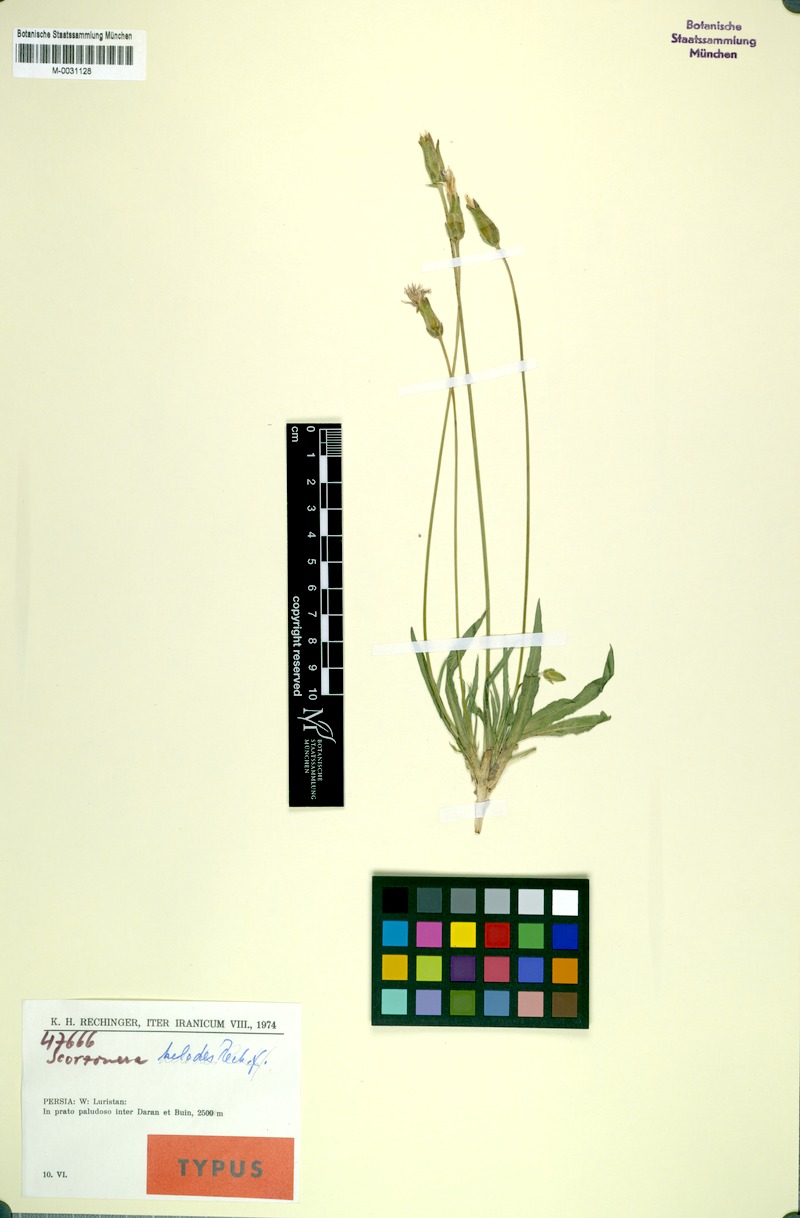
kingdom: Plantae
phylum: Tracheophyta
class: Magnoliopsida
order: Asterales
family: Asteraceae
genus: Scorzonera
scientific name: Scorzonera helodes
